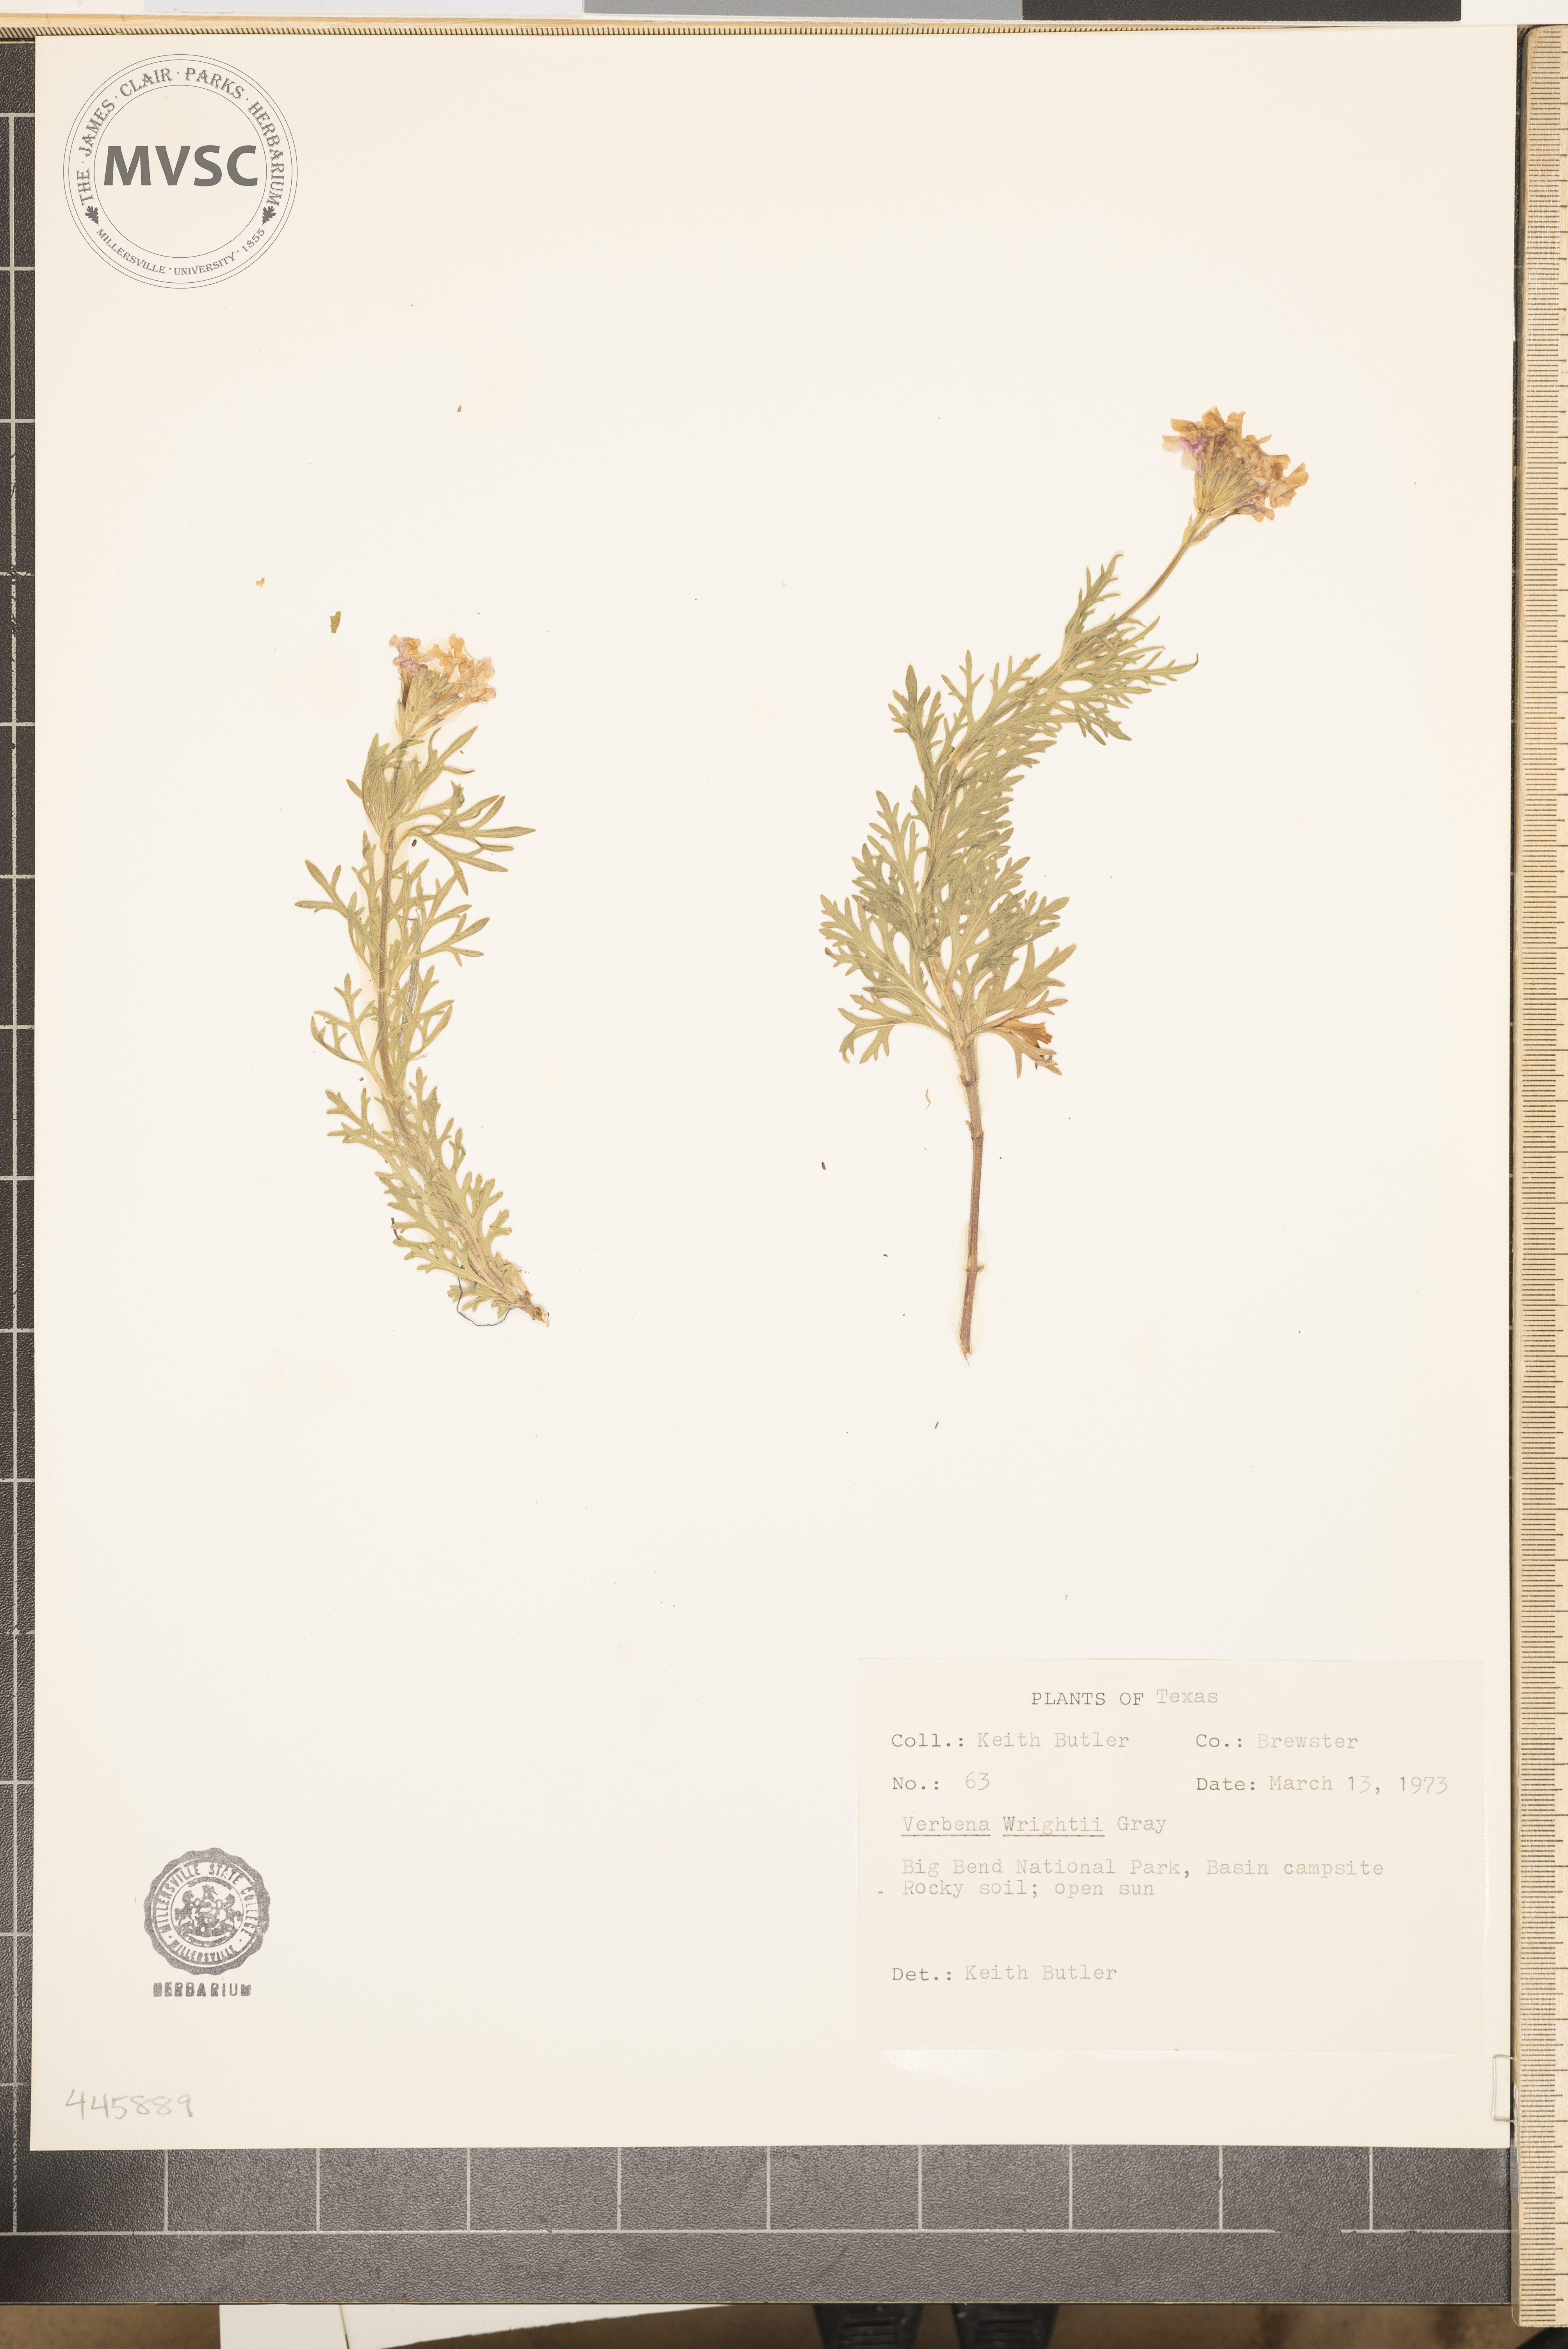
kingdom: Plantae
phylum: Tracheophyta
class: Magnoliopsida
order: Lamiales
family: Verbenaceae
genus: Verbena
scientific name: Verbena
